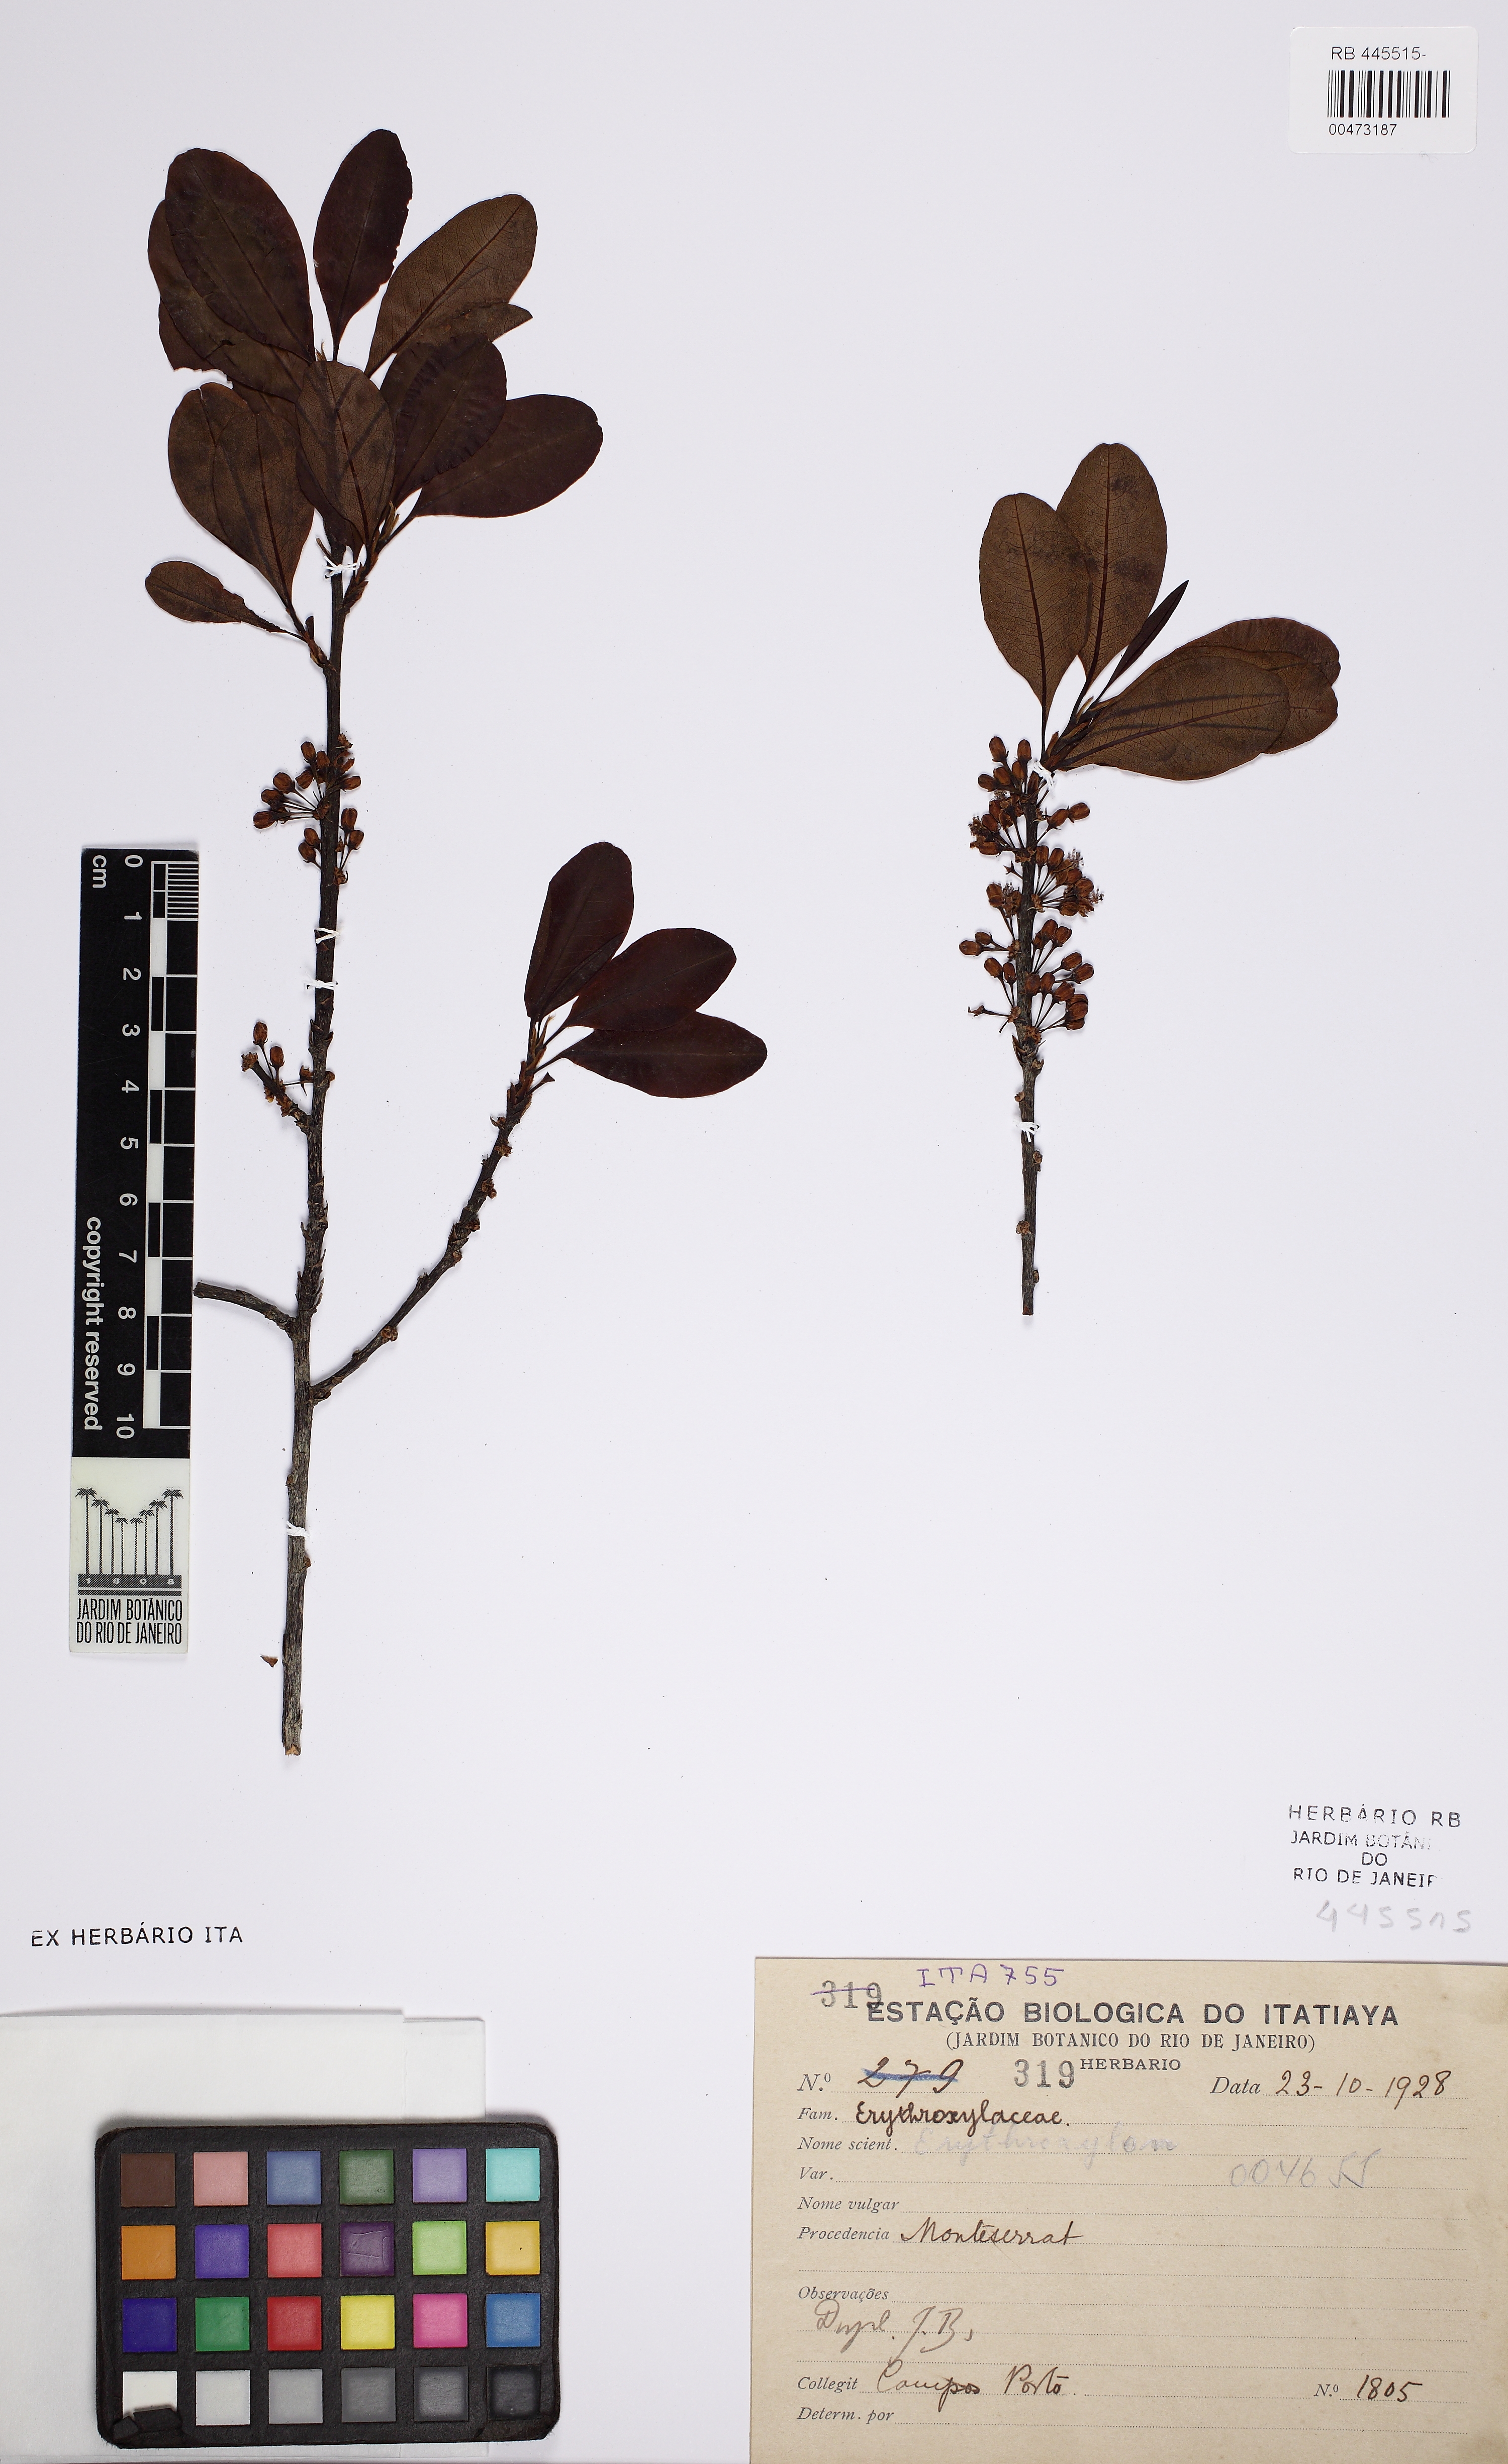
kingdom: Plantae
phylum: Tracheophyta
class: Magnoliopsida
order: Malpighiales
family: Erythroxylaceae
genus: Erythroxylum
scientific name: Erythroxylum deciduum
